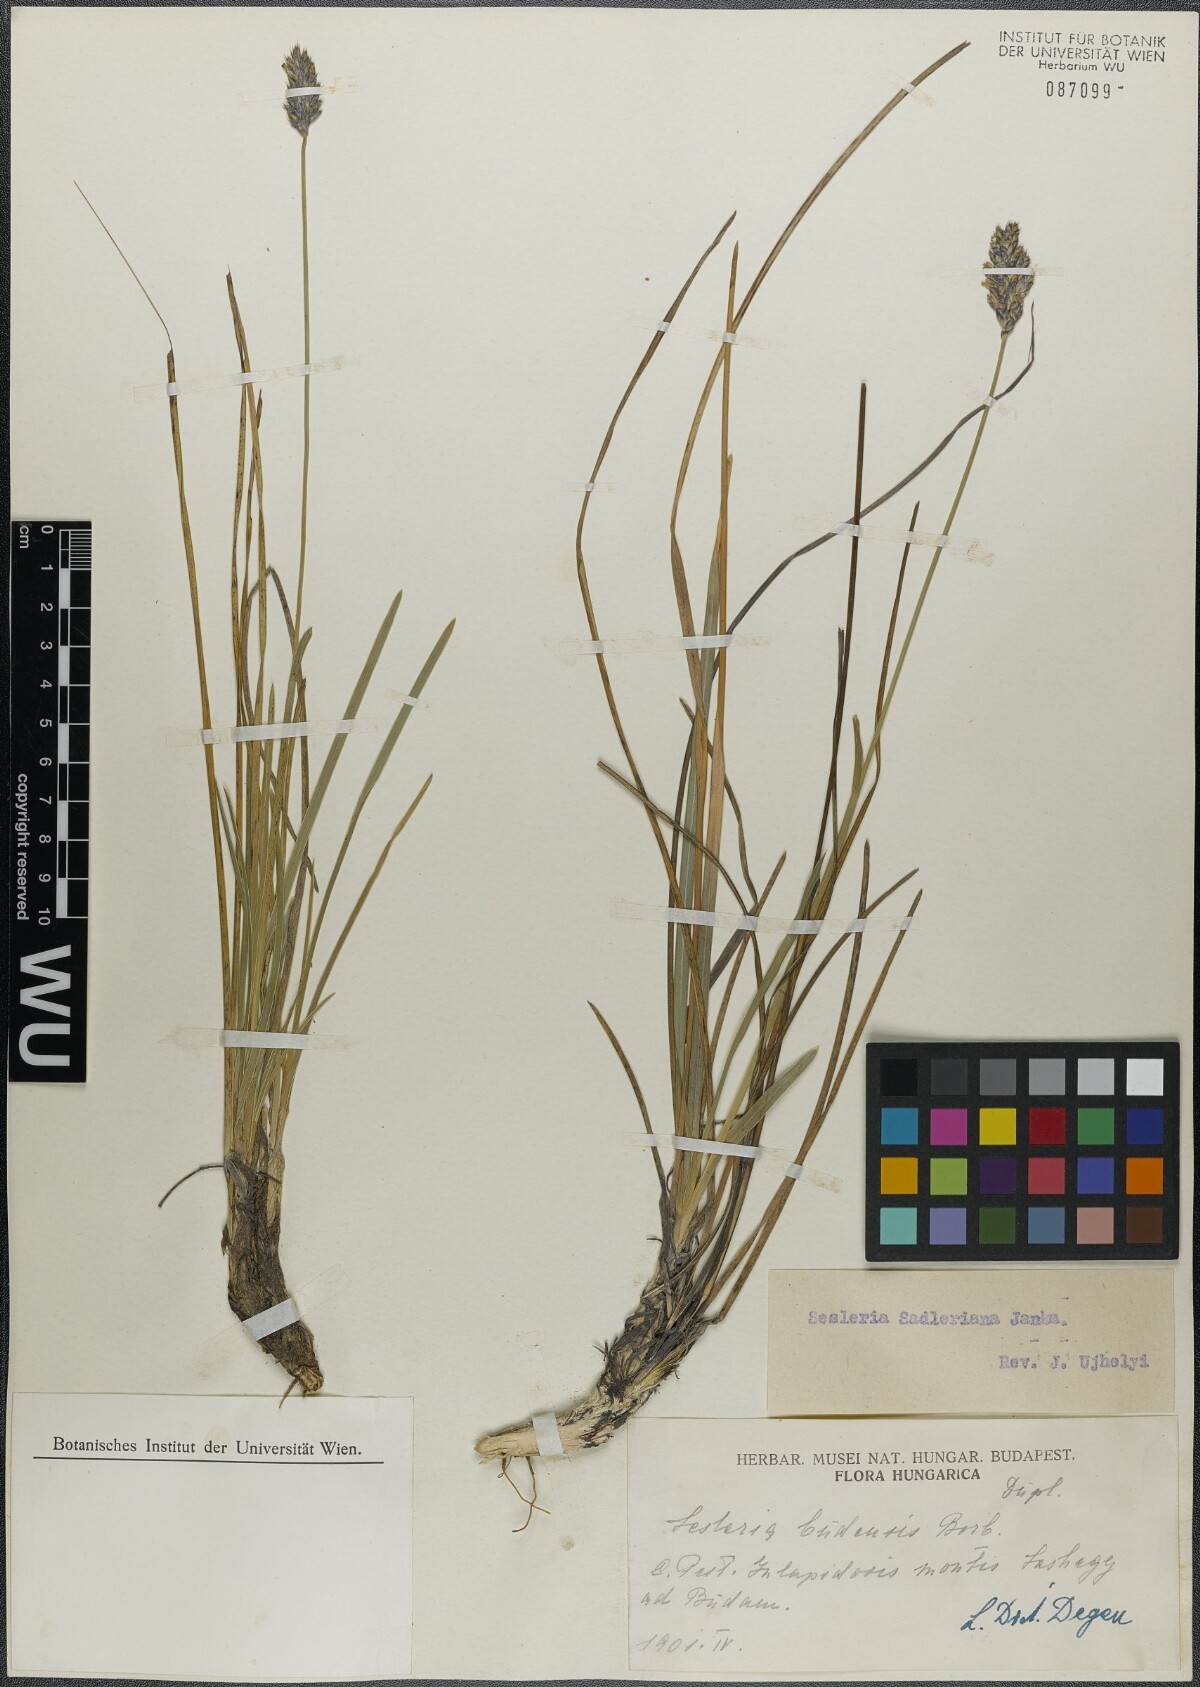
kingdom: Plantae
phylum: Tracheophyta
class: Liliopsida
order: Poales
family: Poaceae
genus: Sesleria
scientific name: Sesleria sadleriana
